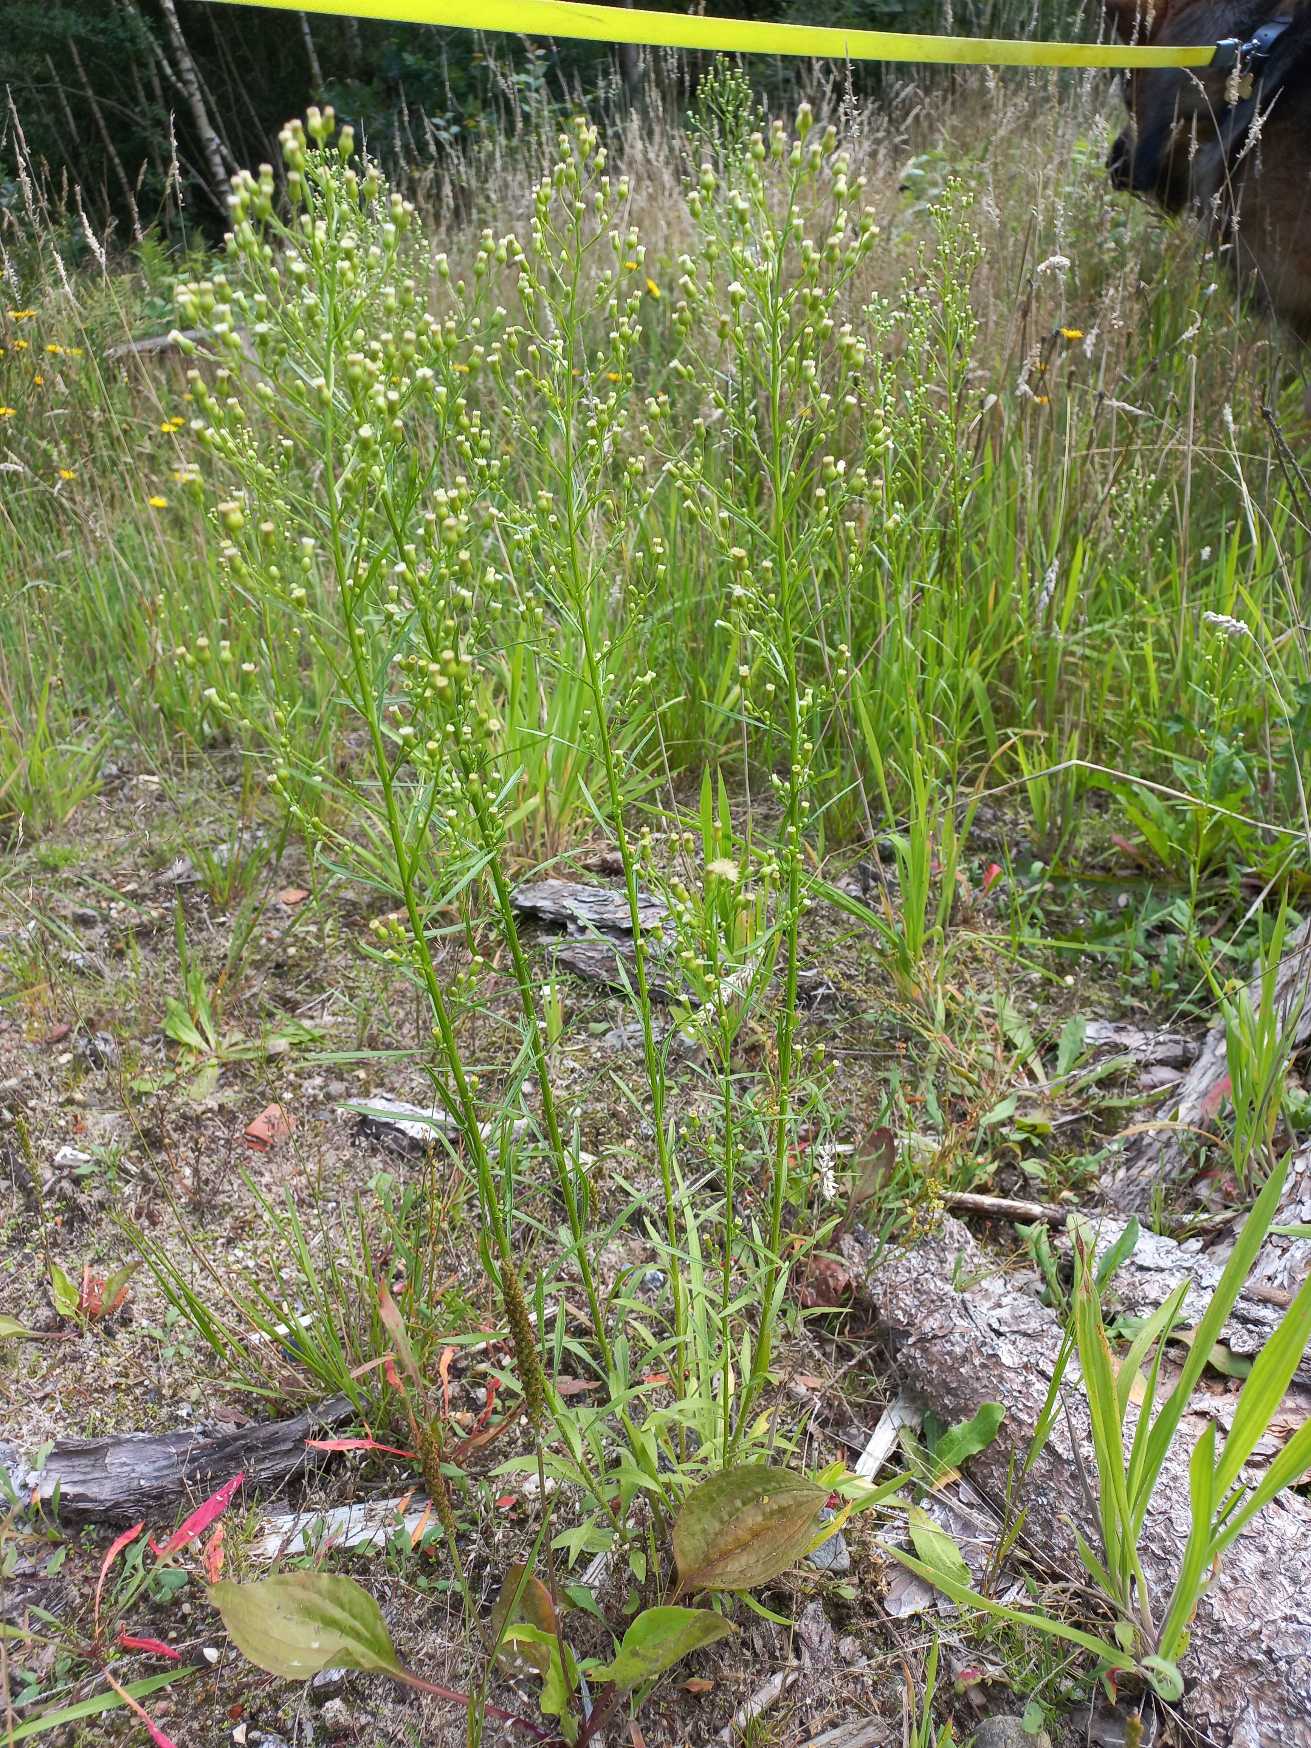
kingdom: Plantae
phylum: Tracheophyta
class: Magnoliopsida
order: Asterales
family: Asteraceae
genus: Erigeron
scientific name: Erigeron canadensis
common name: Kanadisk bakkestjerne
